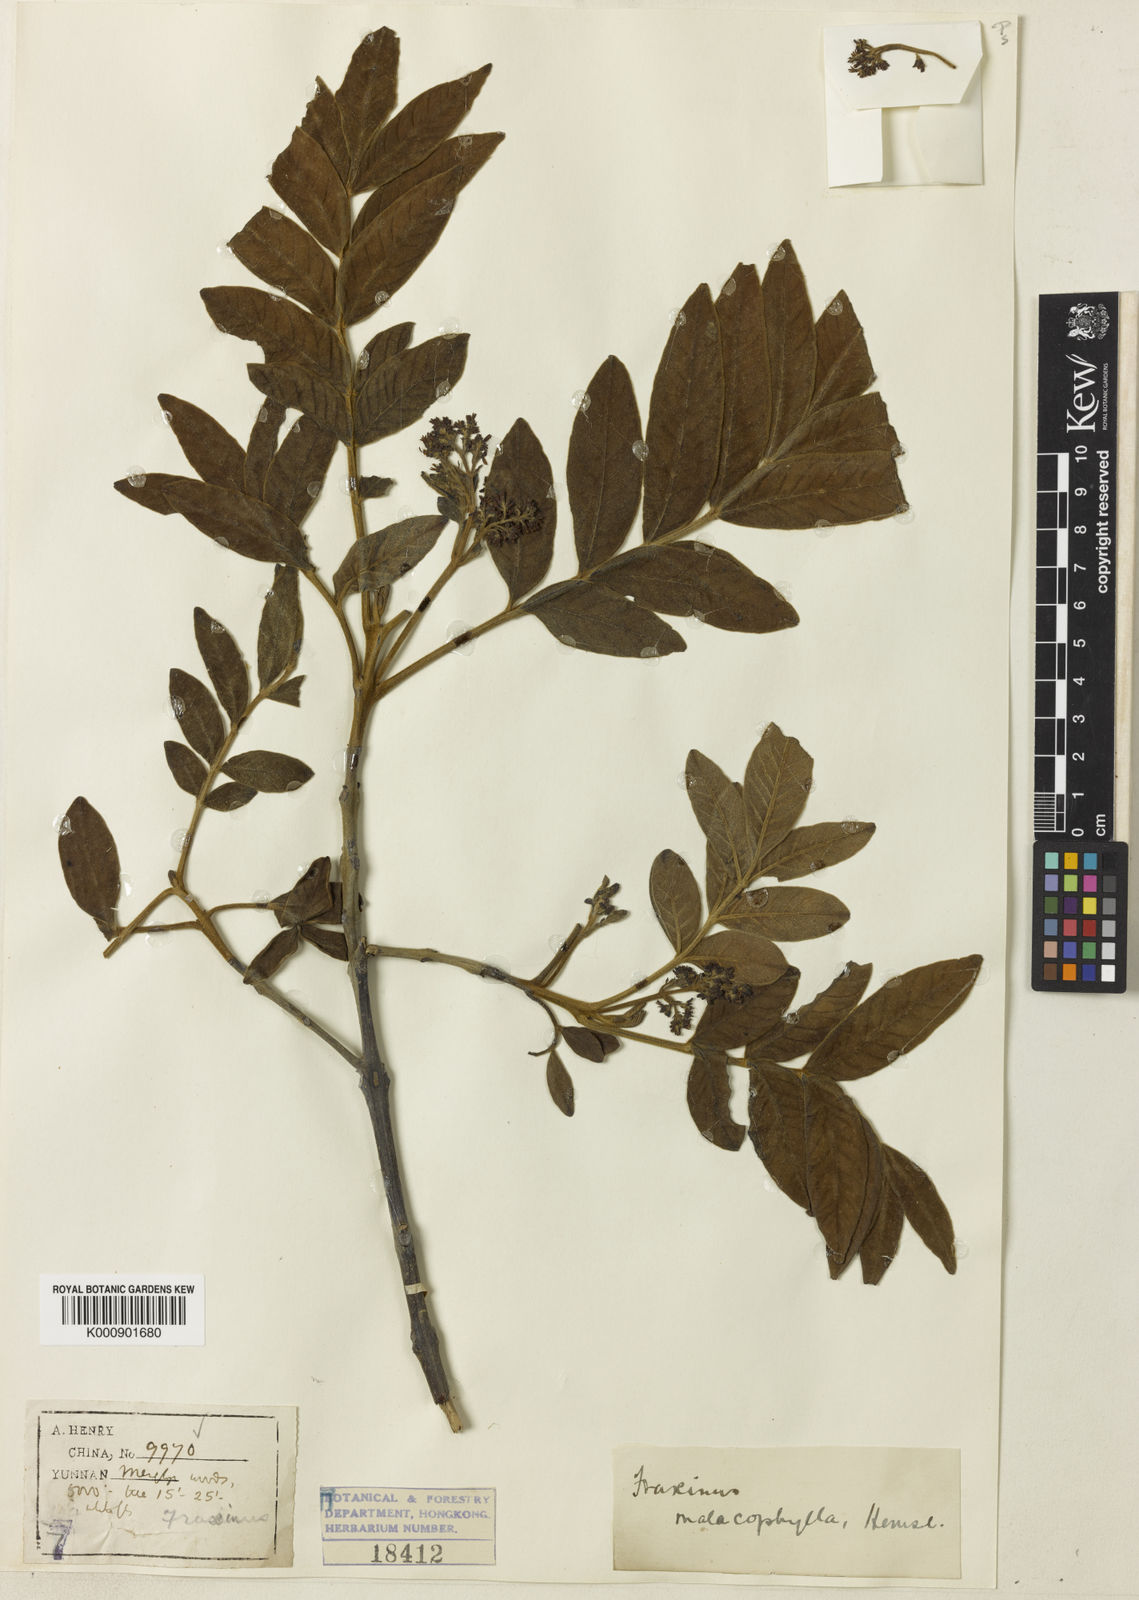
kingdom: Plantae
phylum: Tracheophyta
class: Magnoliopsida
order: Lamiales
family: Oleaceae
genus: Fraxinus
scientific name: Fraxinus malacophylla
